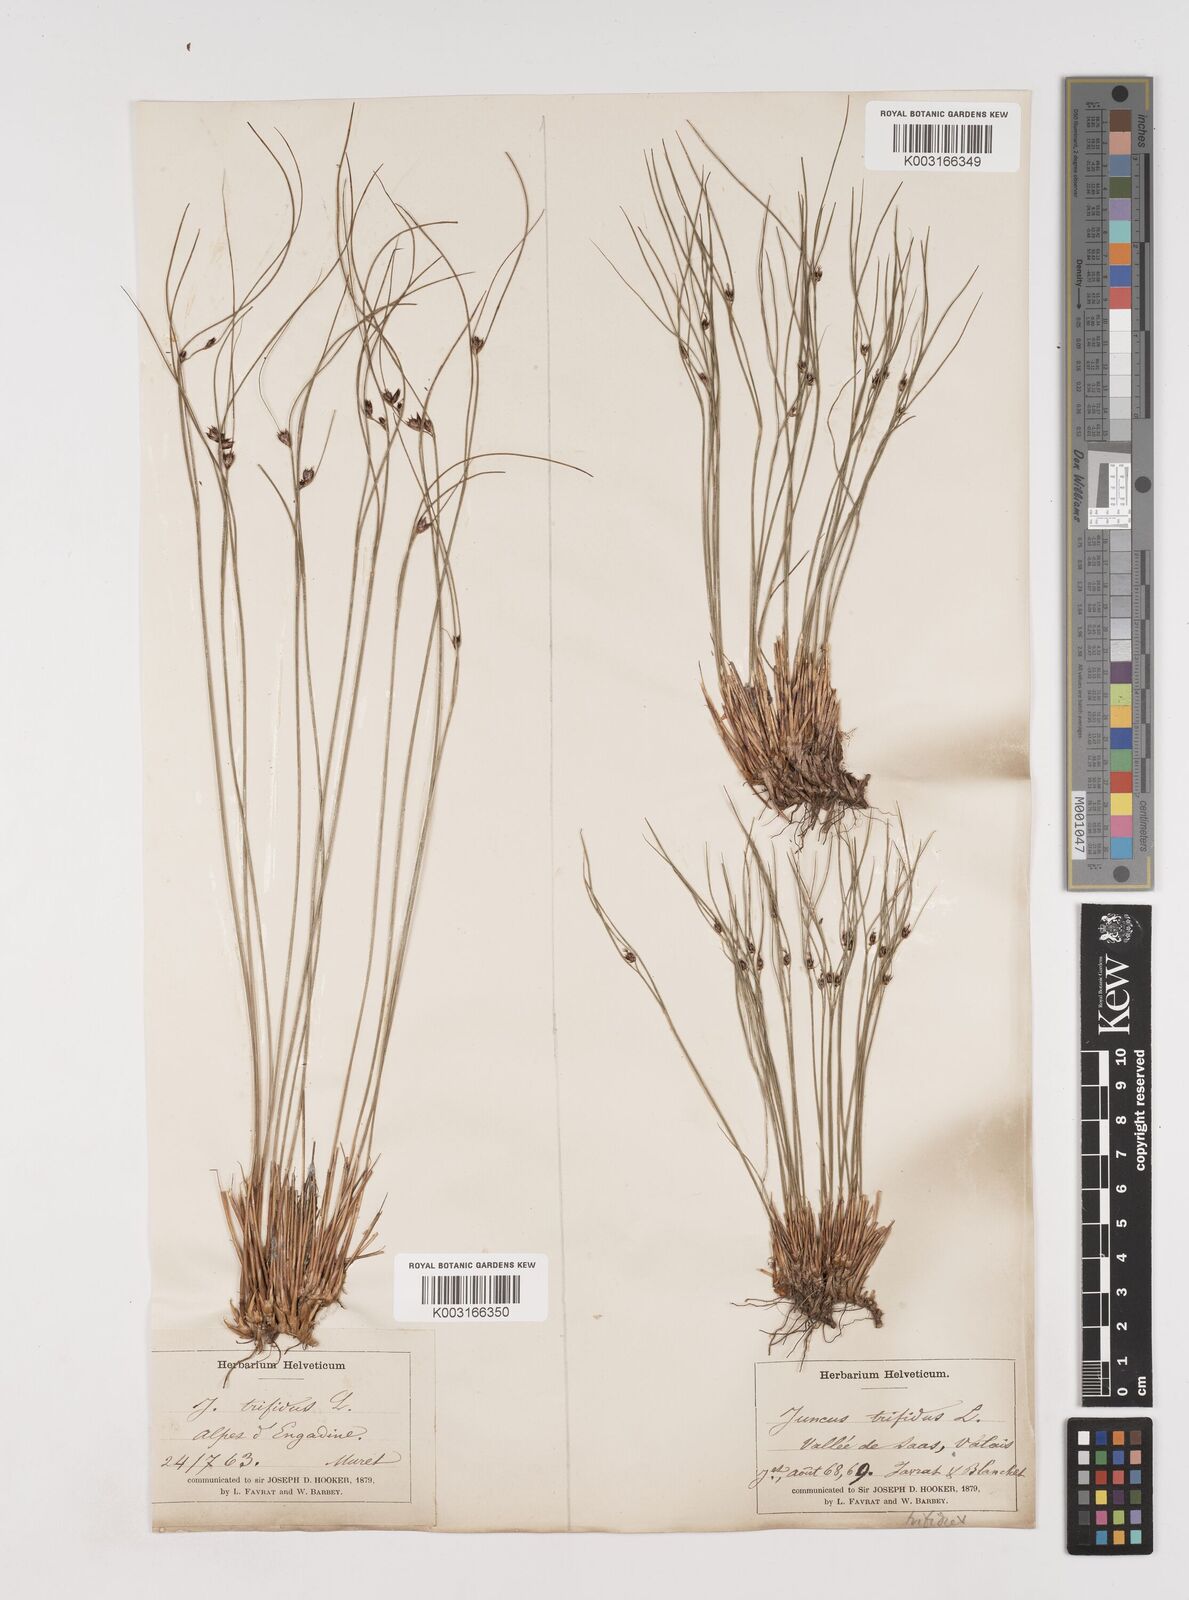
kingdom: Plantae
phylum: Tracheophyta
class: Liliopsida
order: Poales
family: Juncaceae
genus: Oreojuncus
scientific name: Oreojuncus trifidus
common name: Highland rush
